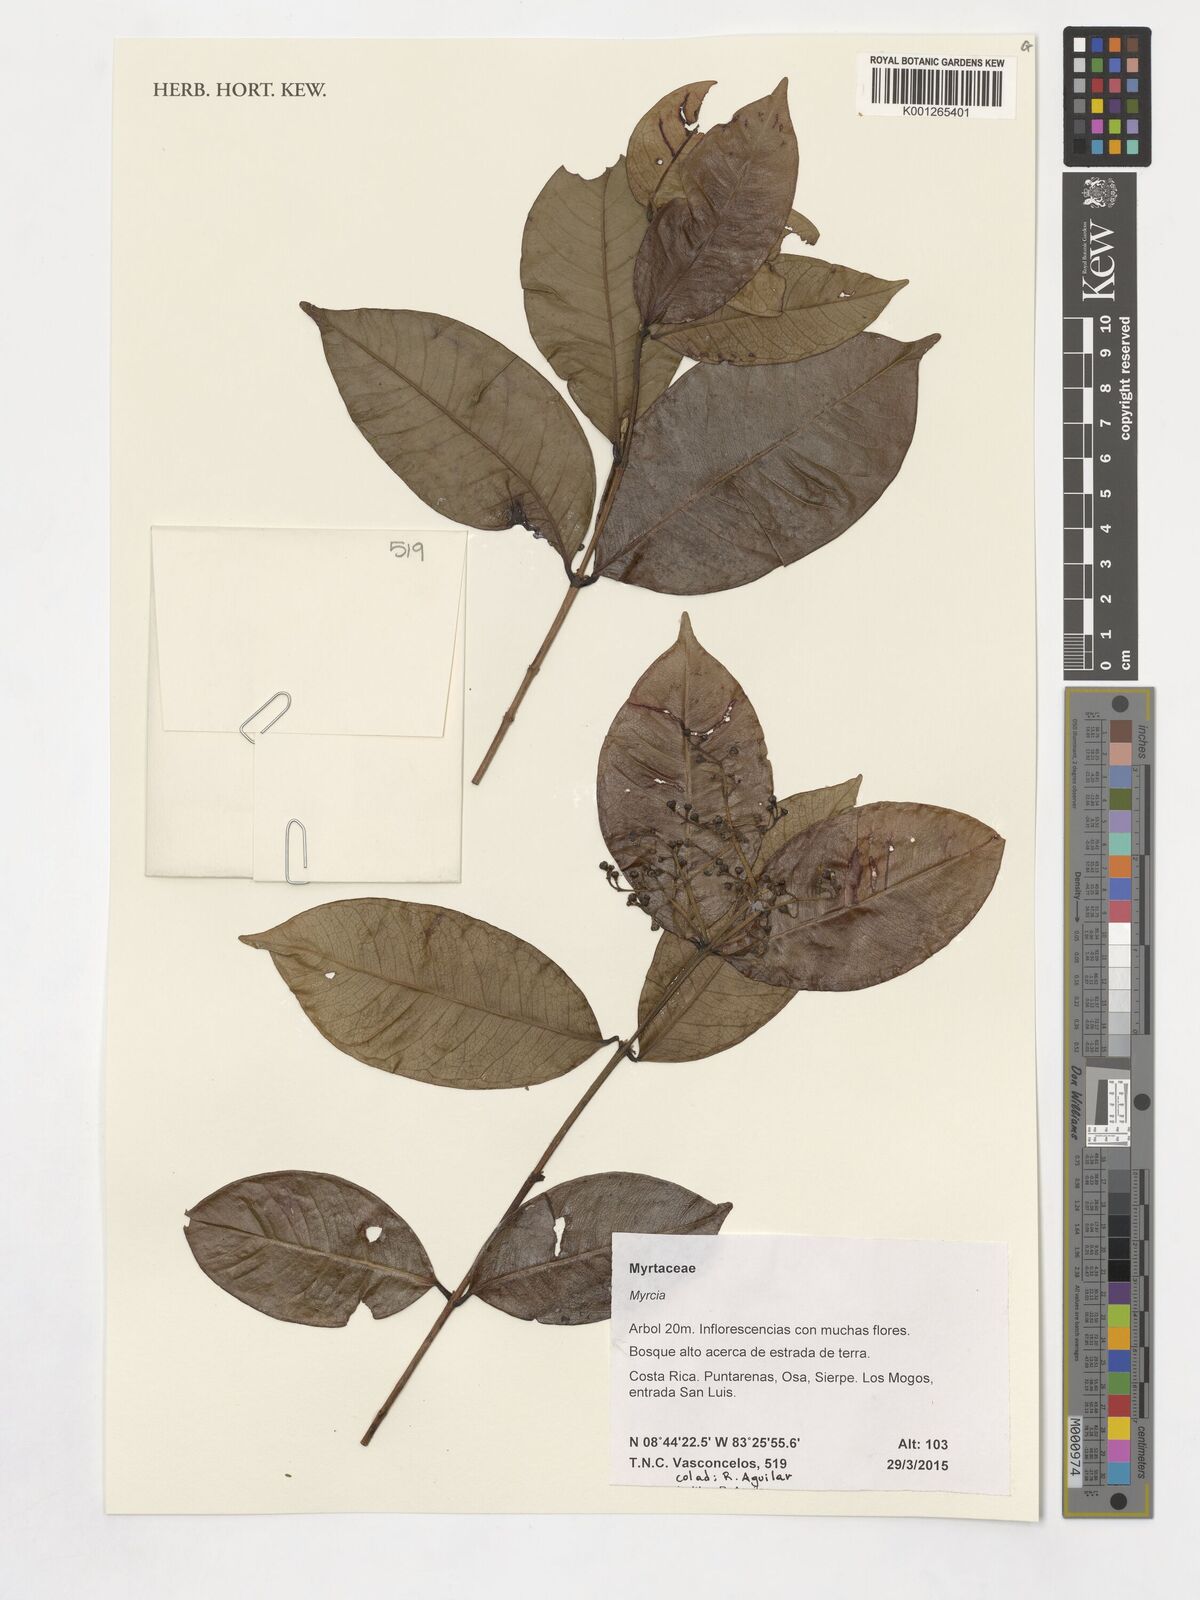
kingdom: Plantae
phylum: Tracheophyta
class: Magnoliopsida
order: Myrtales
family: Myrtaceae
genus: Myrcia
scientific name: Myrcia
